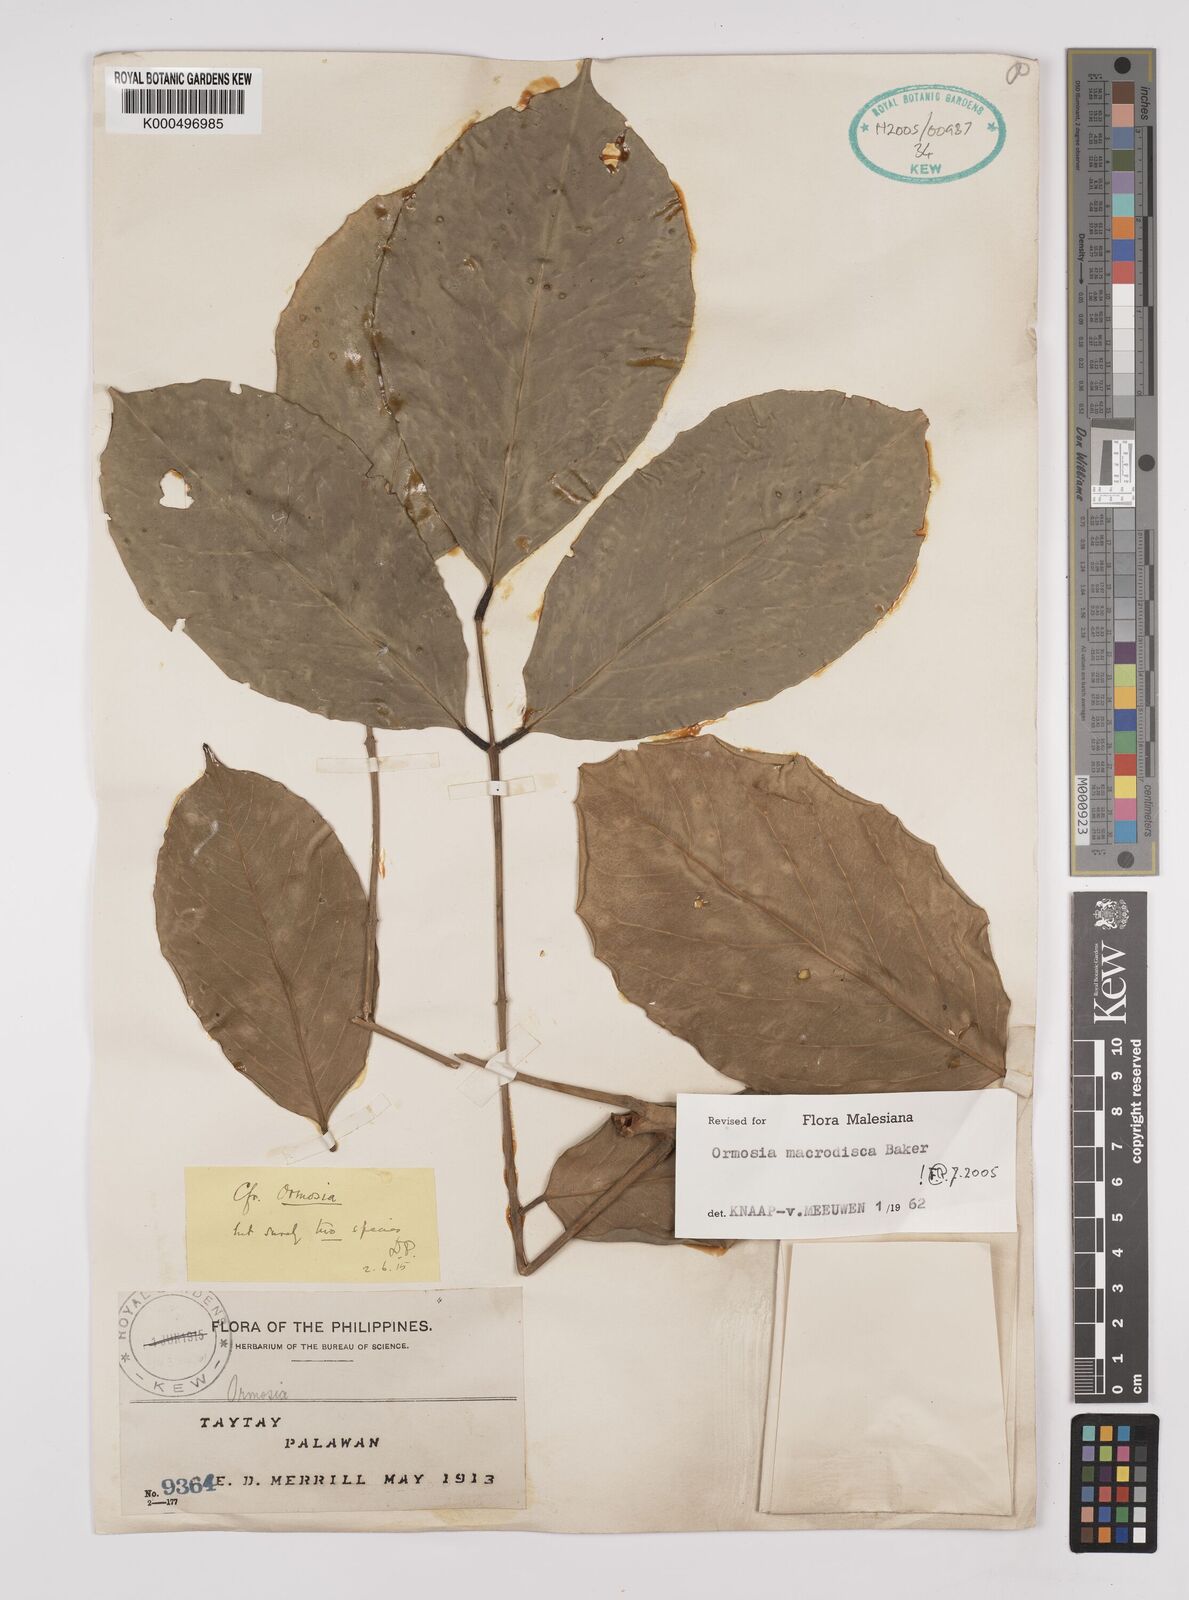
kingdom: Plantae
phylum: Tracheophyta
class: Magnoliopsida
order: Fabales
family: Fabaceae
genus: Ormosia
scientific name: Ormosia macrodisca
